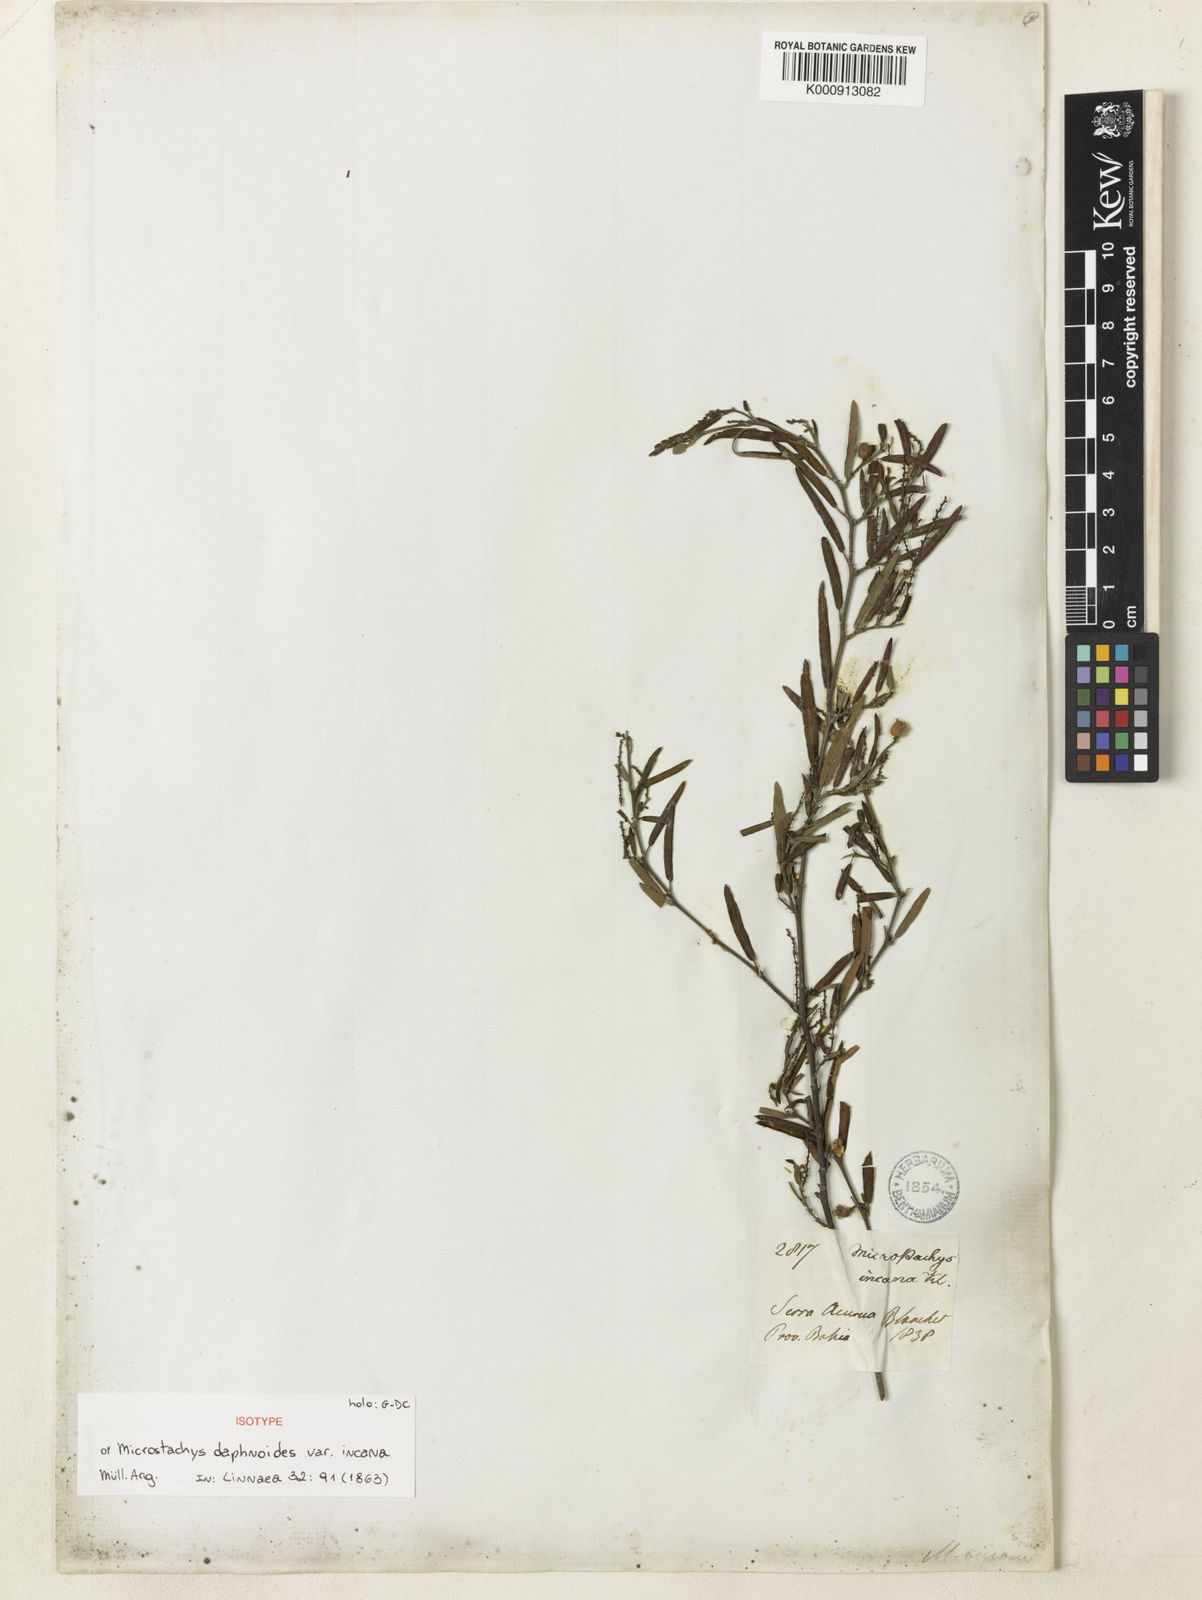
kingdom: Plantae
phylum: Tracheophyta
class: Magnoliopsida
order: Malpighiales
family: Euphorbiaceae
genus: Microstachys
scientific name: Microstachys
